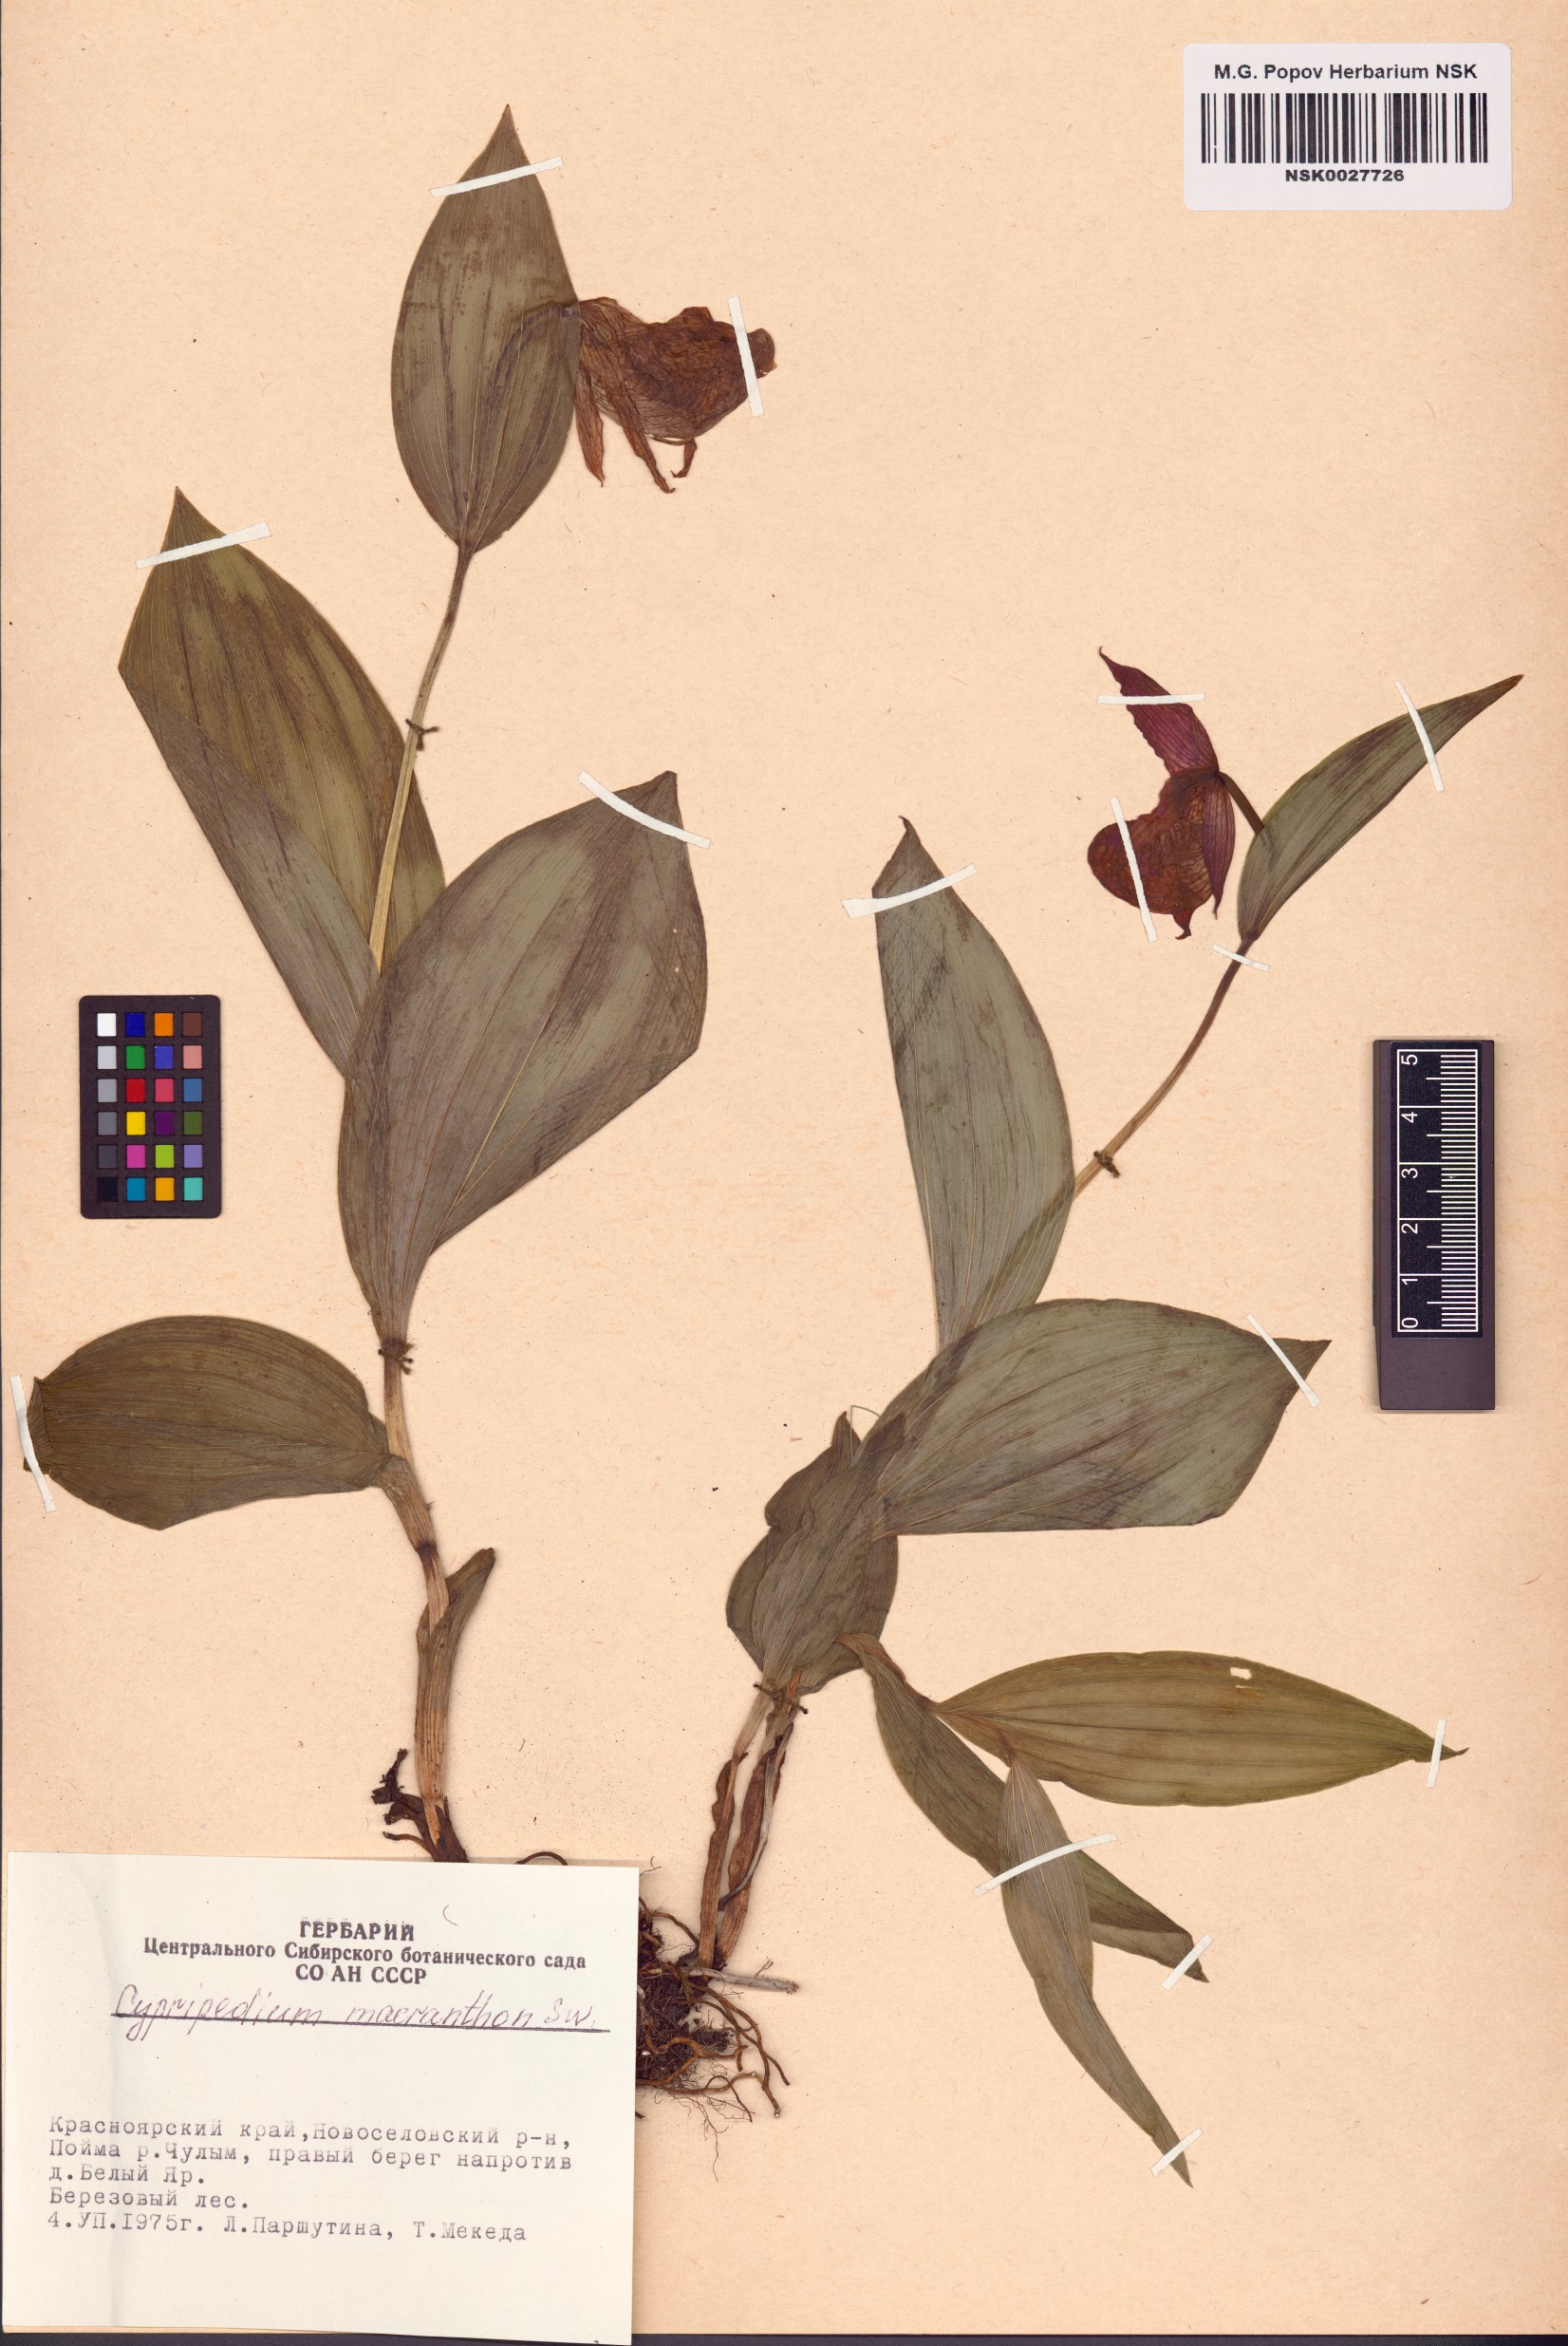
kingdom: Plantae
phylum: Tracheophyta
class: Liliopsida
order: Asparagales
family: Orchidaceae
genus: Cypripedium
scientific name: Cypripedium macranthos
